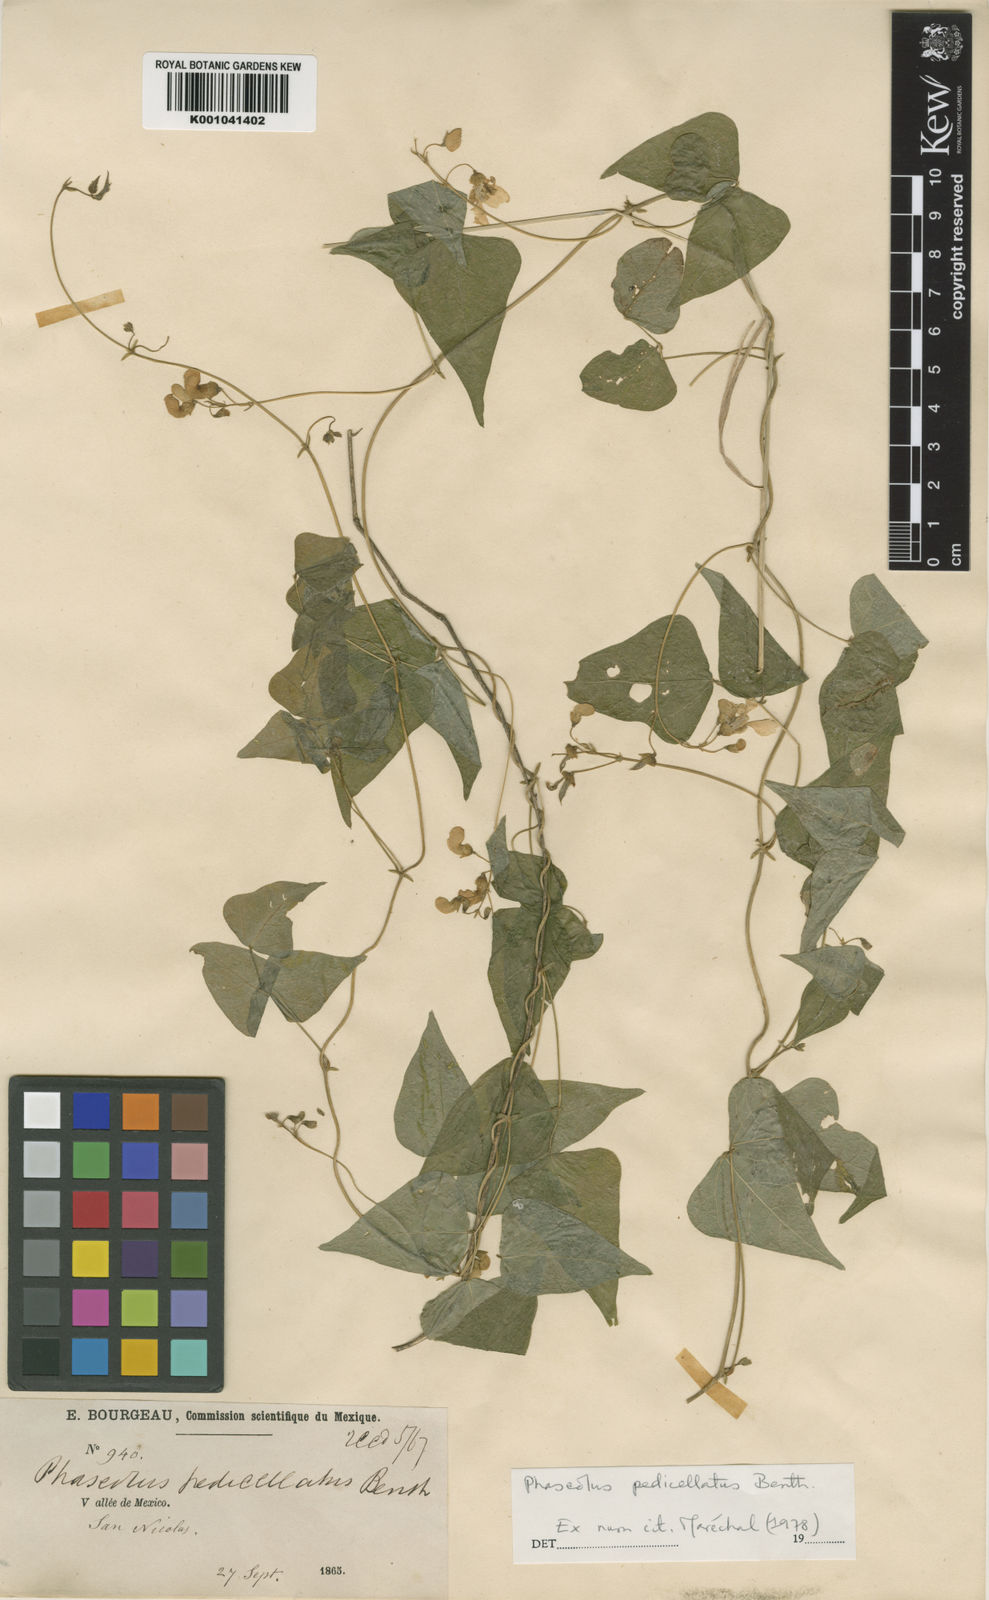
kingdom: Plantae
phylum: Tracheophyta
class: Magnoliopsida
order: Fabales
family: Fabaceae
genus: Phaseolus
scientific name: Phaseolus pedicellatus
